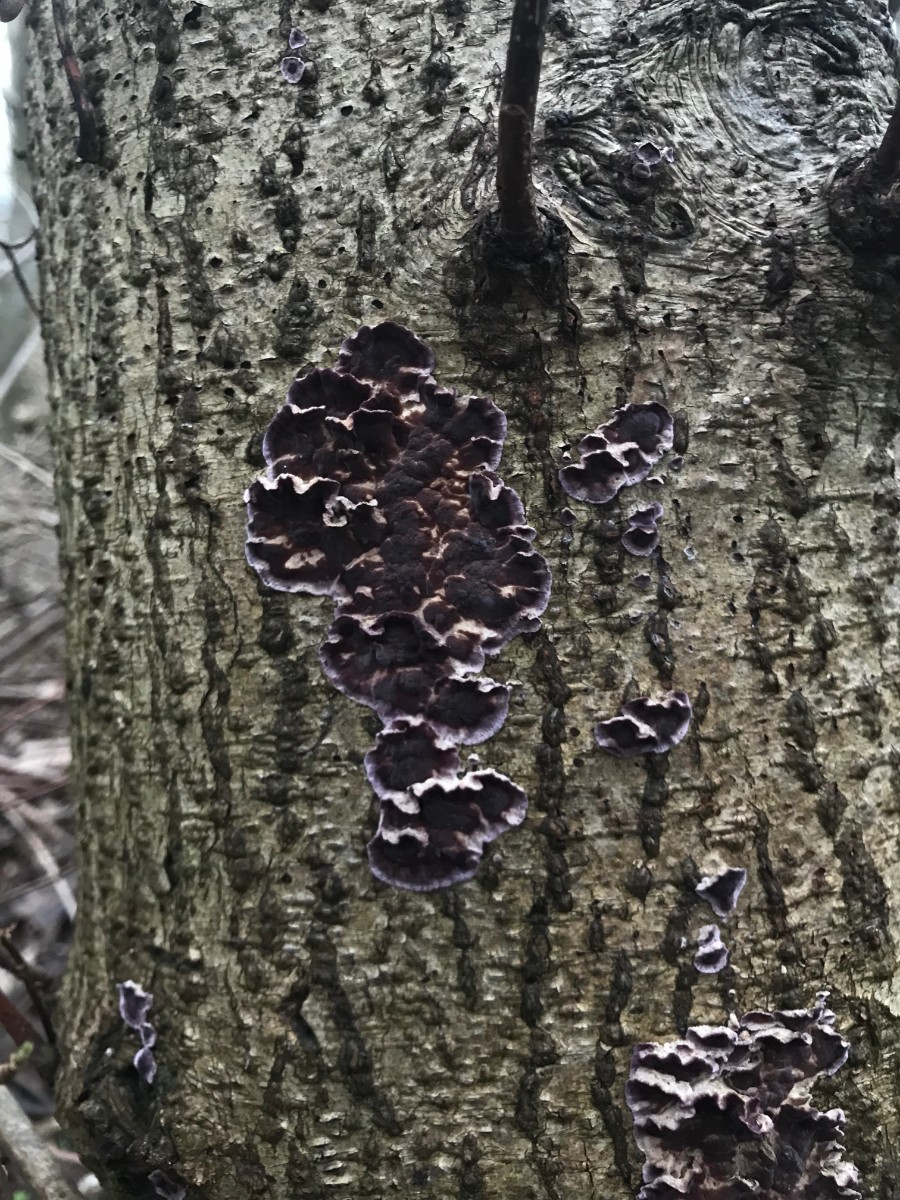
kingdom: Fungi
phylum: Basidiomycota
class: Agaricomycetes
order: Agaricales
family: Cyphellaceae
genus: Chondrostereum
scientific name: Chondrostereum purpureum
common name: purpurlædersvamp
